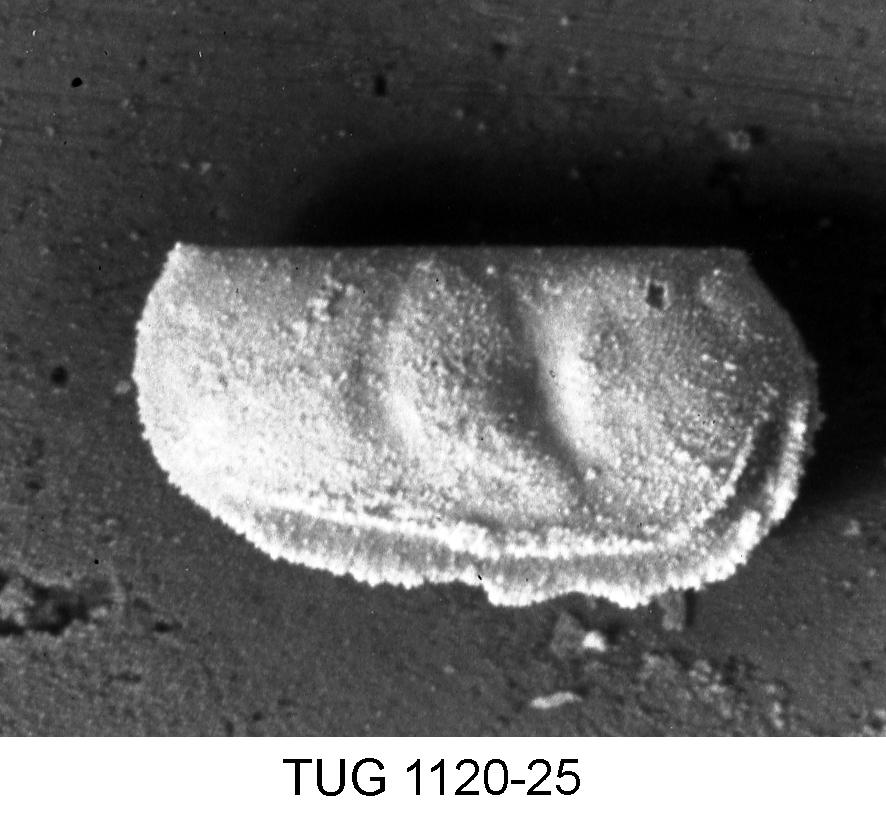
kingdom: Animalia
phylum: Arthropoda
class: Ostracoda
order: Palaeocopida
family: Tetradellidae
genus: Ctenobolbina
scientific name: Ctenobolbina
